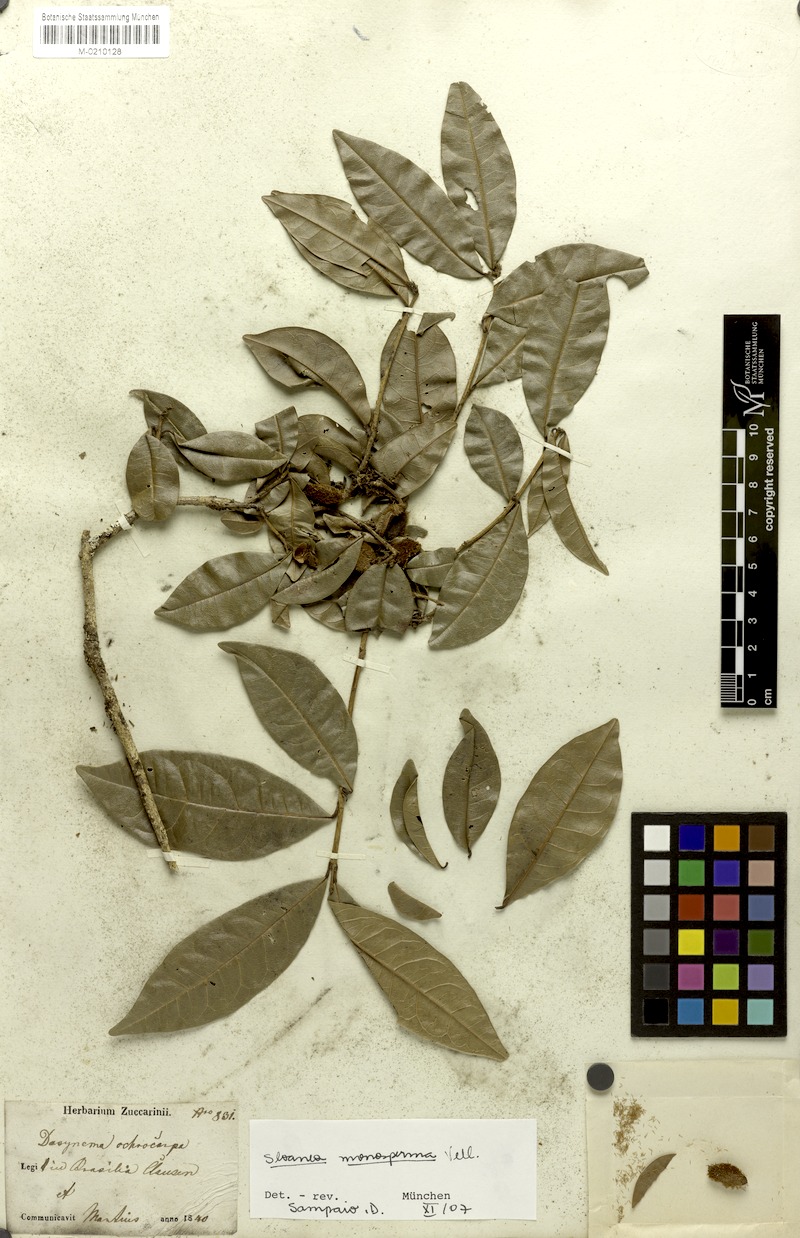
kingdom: Plantae
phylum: Tracheophyta
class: Magnoliopsida
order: Oxalidales
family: Elaeocarpaceae
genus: Sloanea
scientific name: Sloanea hirsuta
